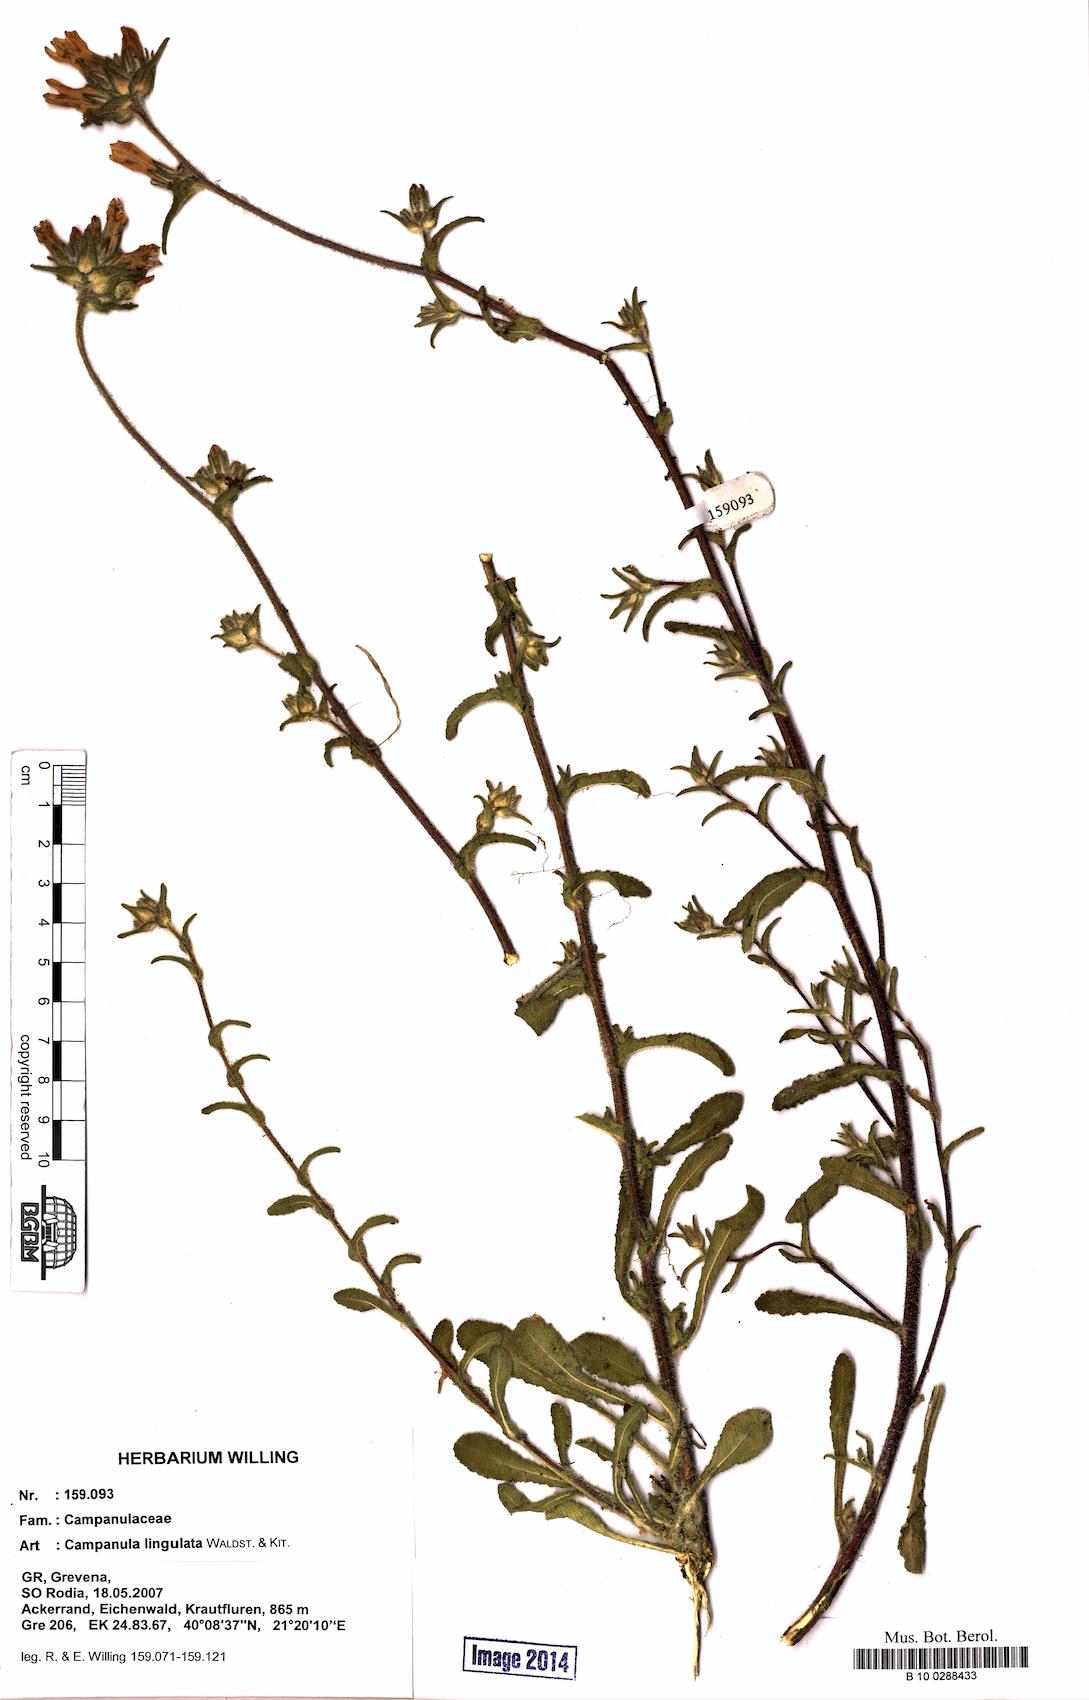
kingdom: Plantae
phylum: Tracheophyta
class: Magnoliopsida
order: Asterales
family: Campanulaceae
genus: Campanula
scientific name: Campanula lingulata
